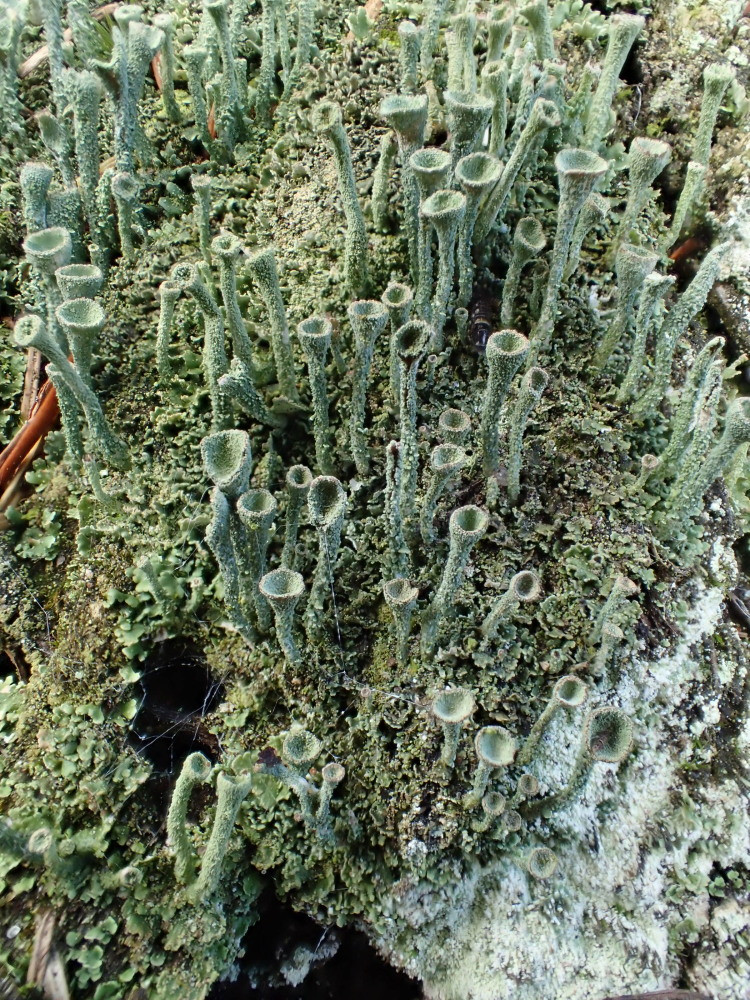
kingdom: Fungi
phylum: Ascomycota
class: Lecanoromycetes
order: Lecanorales
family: Cladoniaceae
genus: Cladonia
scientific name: Cladonia
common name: brungrøn bægerlav
